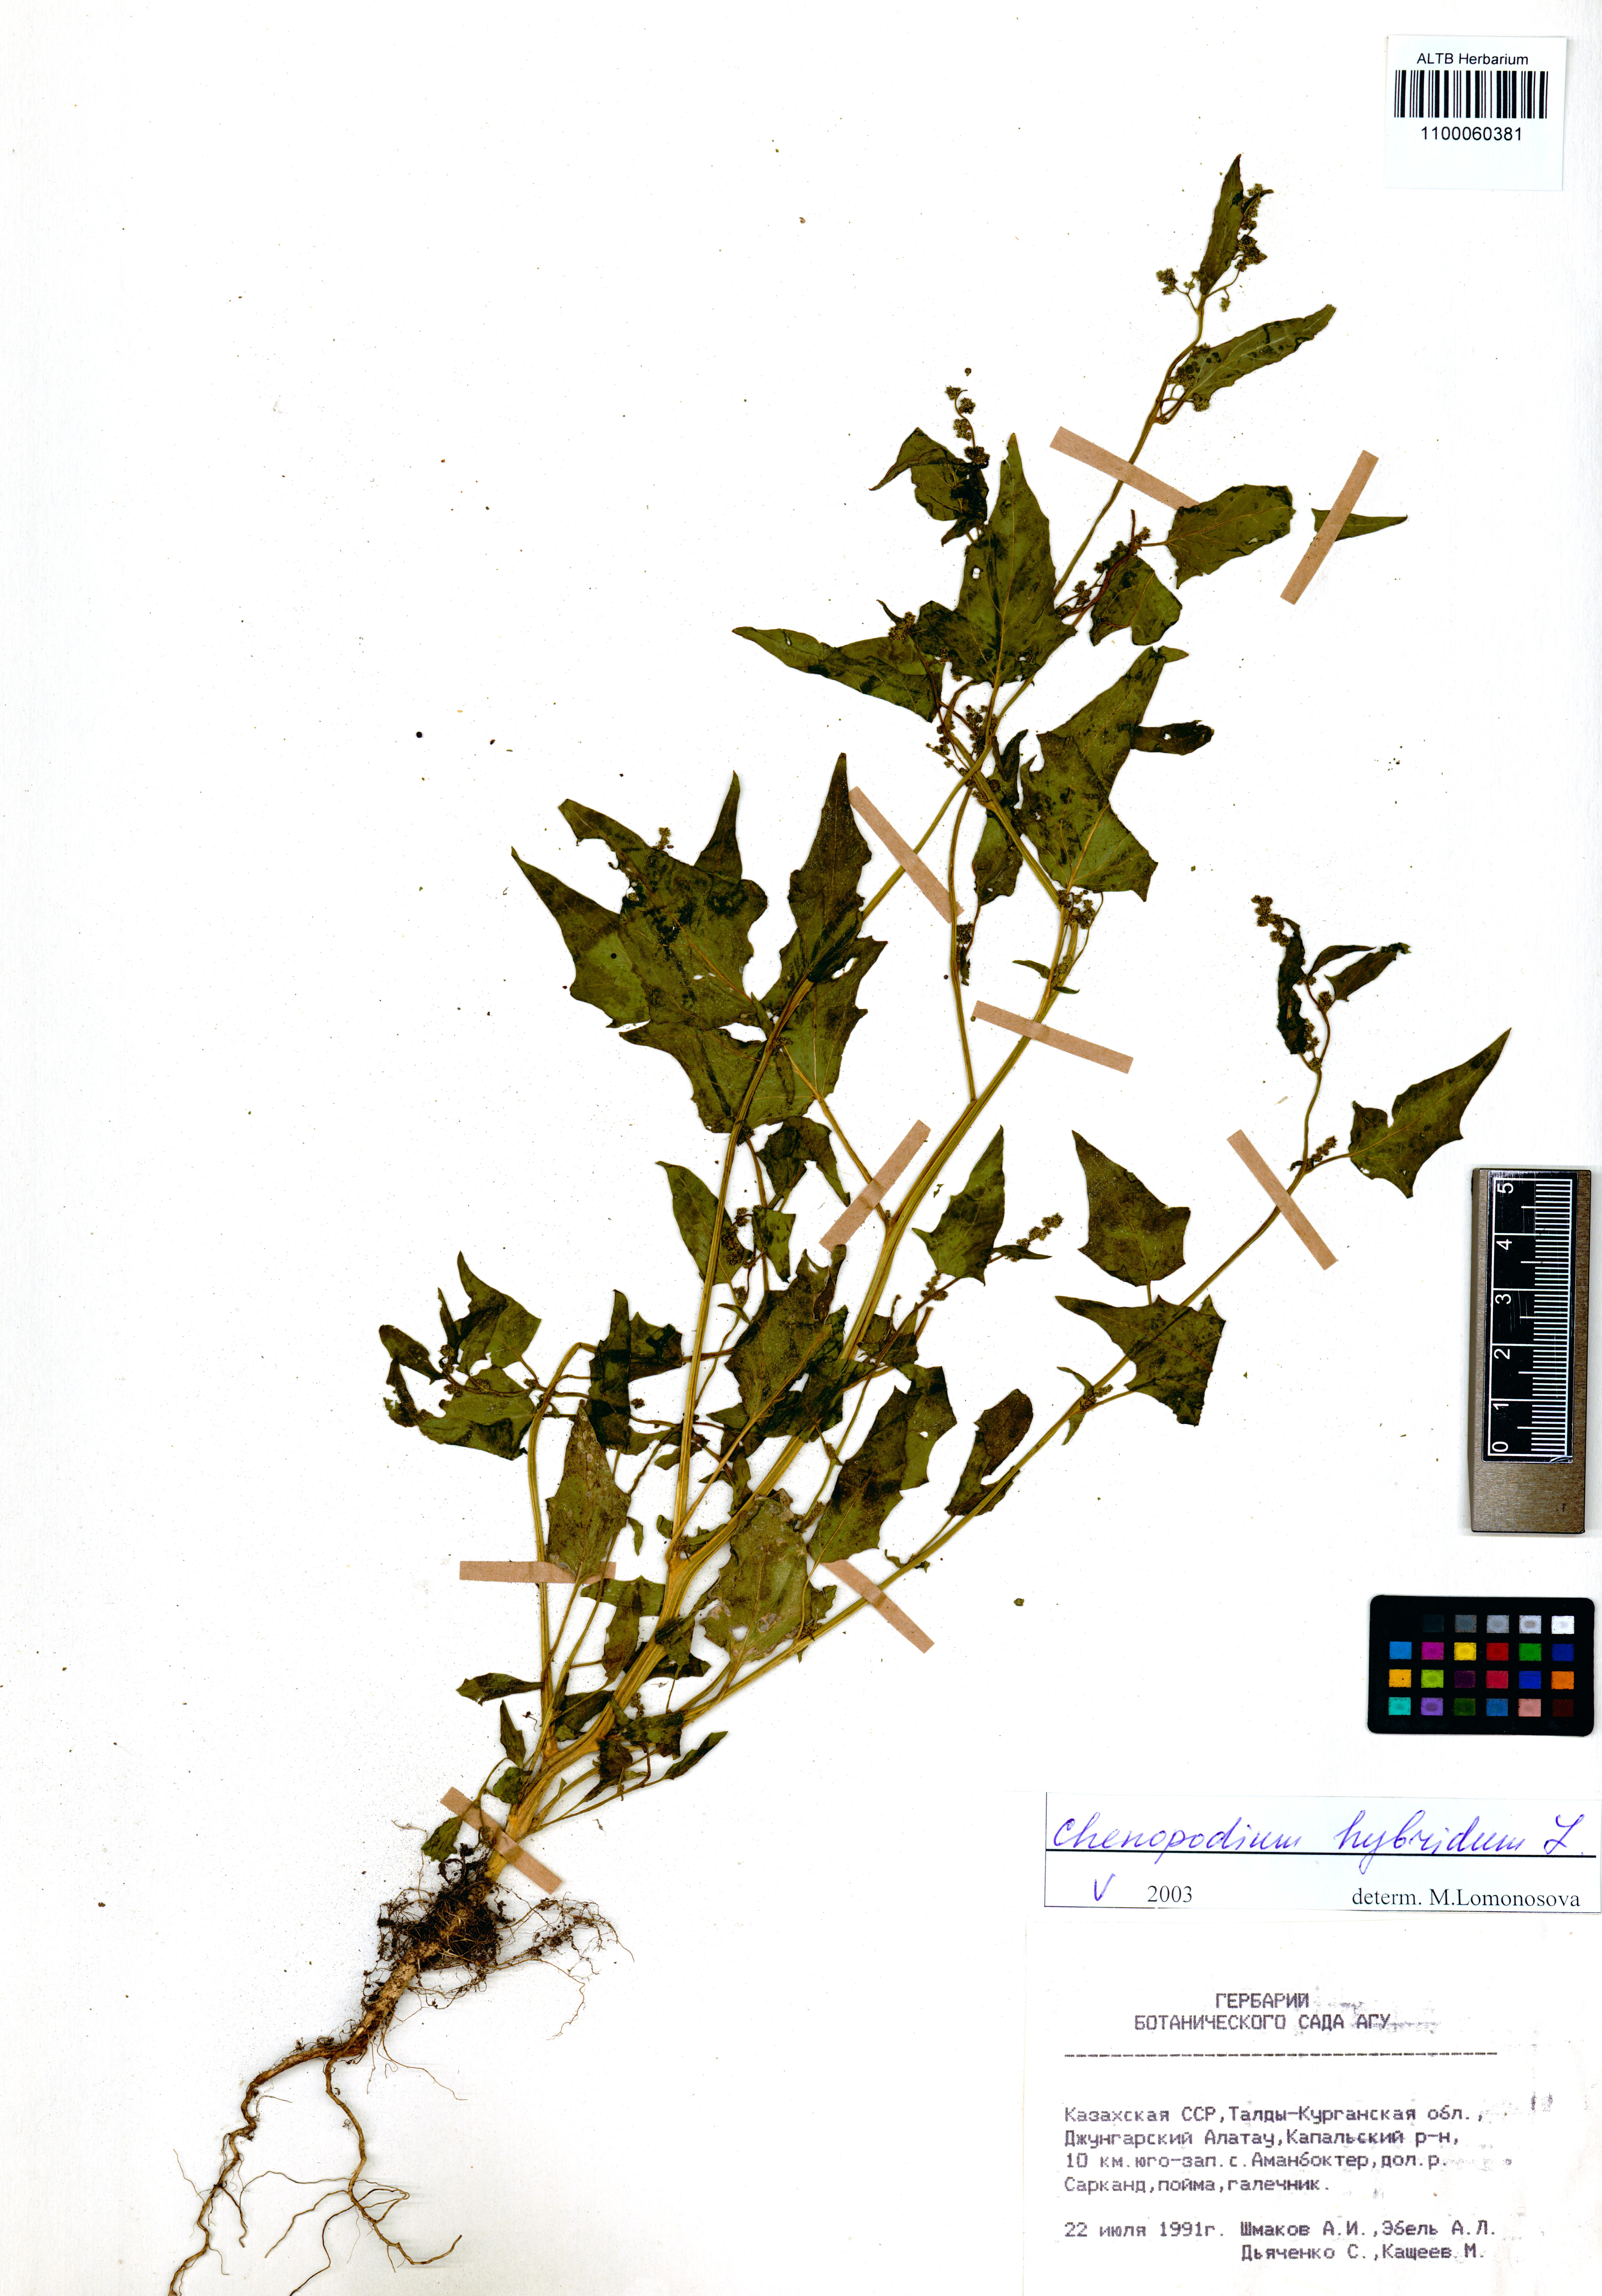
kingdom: Plantae
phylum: Tracheophyta
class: Magnoliopsida
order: Caryophyllales
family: Amaranthaceae
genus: Chenopodiastrum
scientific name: Chenopodiastrum hybridum
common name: Mapleleaf goosefoot
